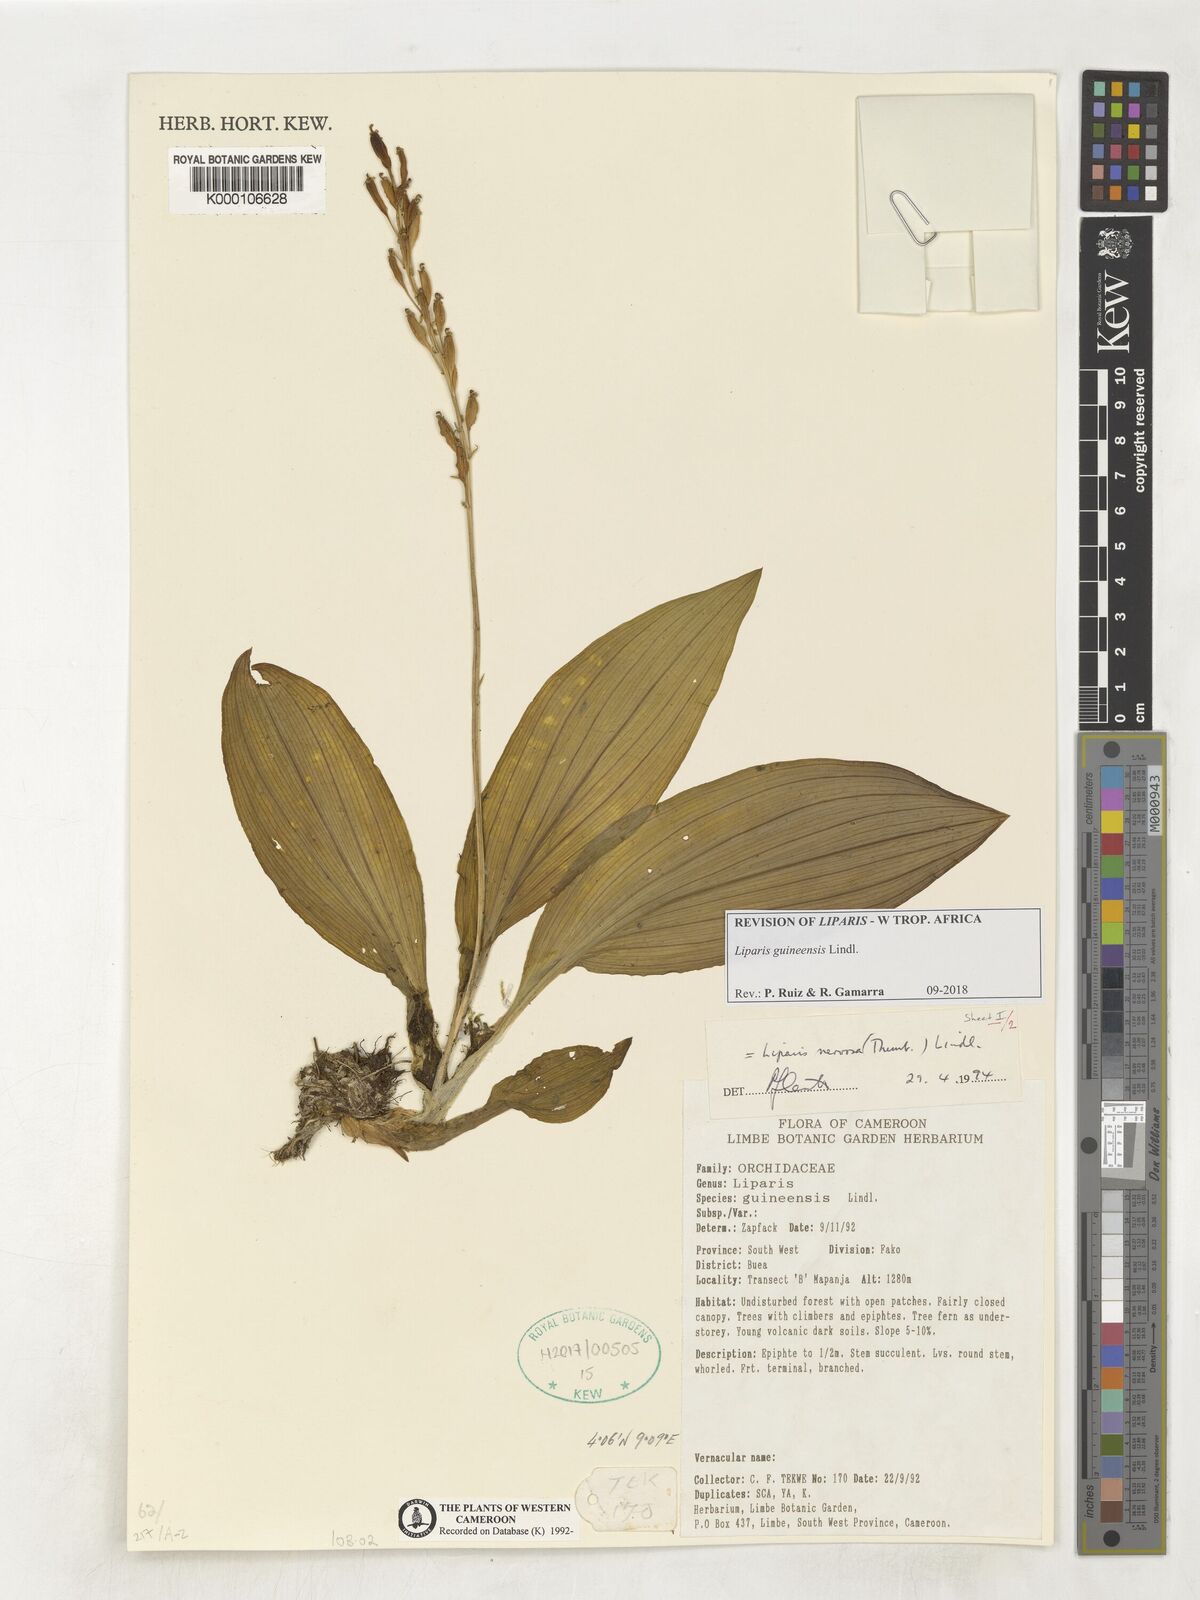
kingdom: Plantae
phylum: Tracheophyta
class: Liliopsida
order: Asparagales
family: Orchidaceae
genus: Liparis
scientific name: Liparis nervosa
